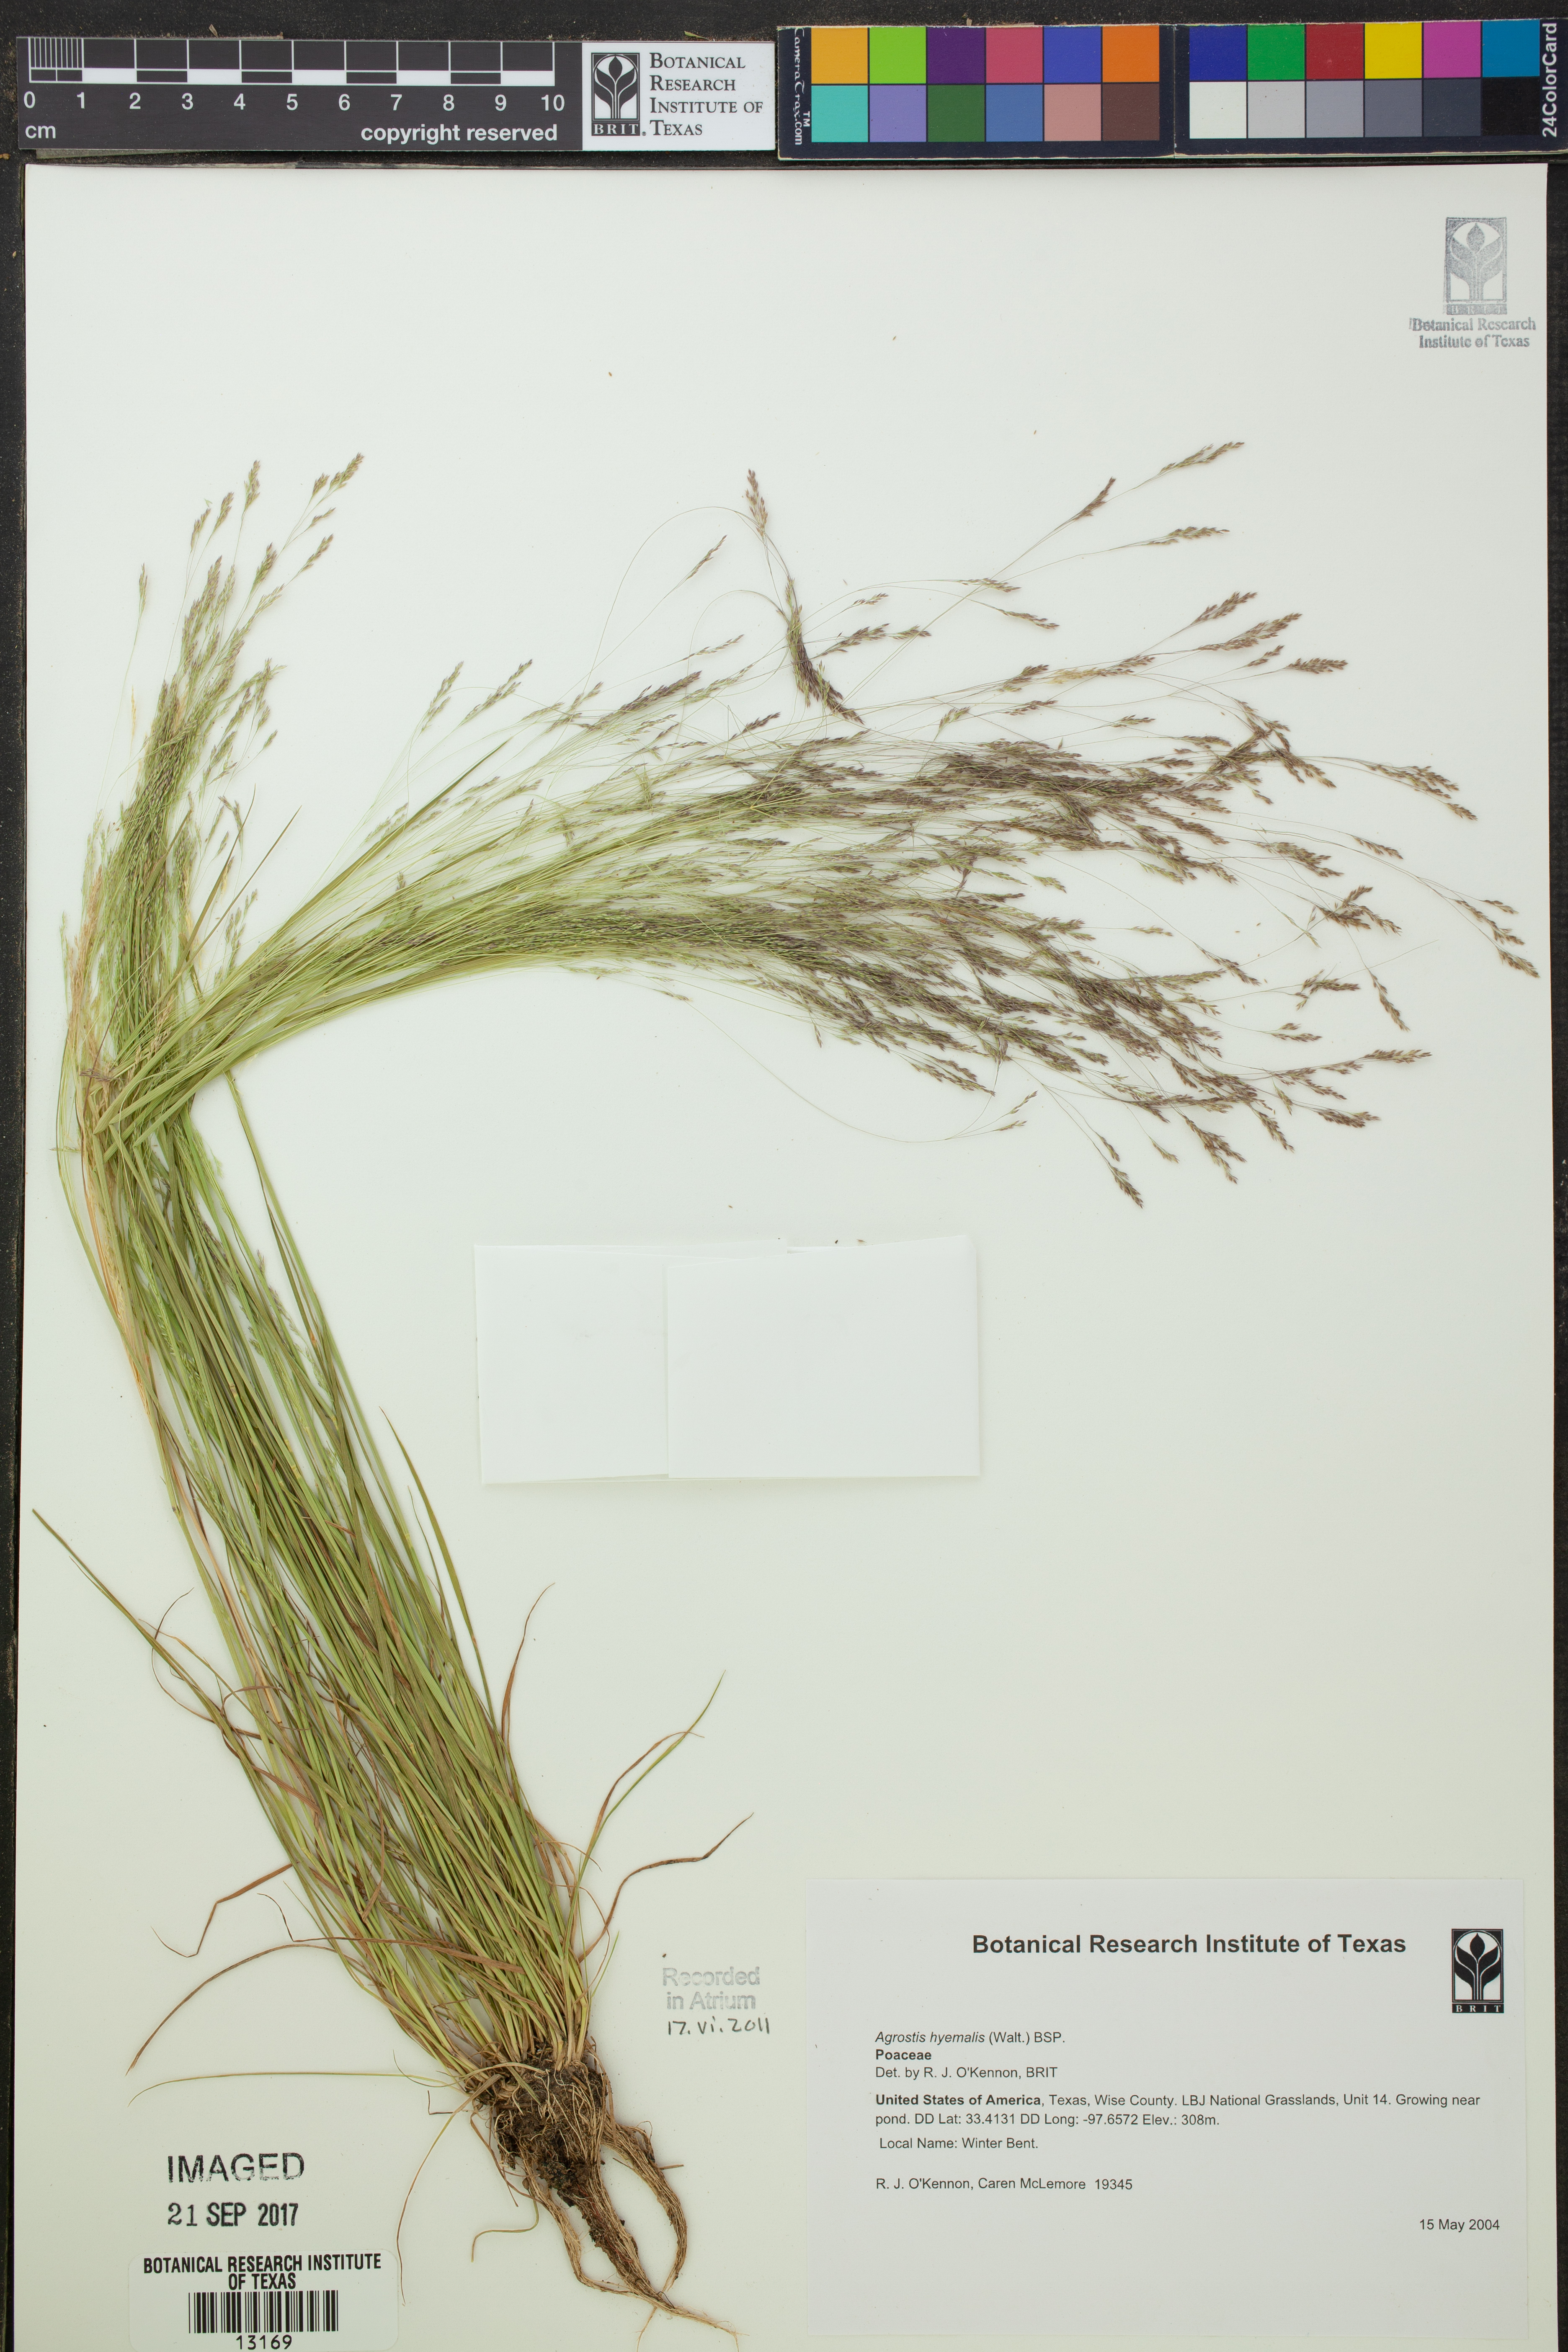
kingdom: Plantae
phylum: Tracheophyta
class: Liliopsida
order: Poales
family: Poaceae
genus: Agrostis
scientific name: Agrostis hyemalis
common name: Small bent
